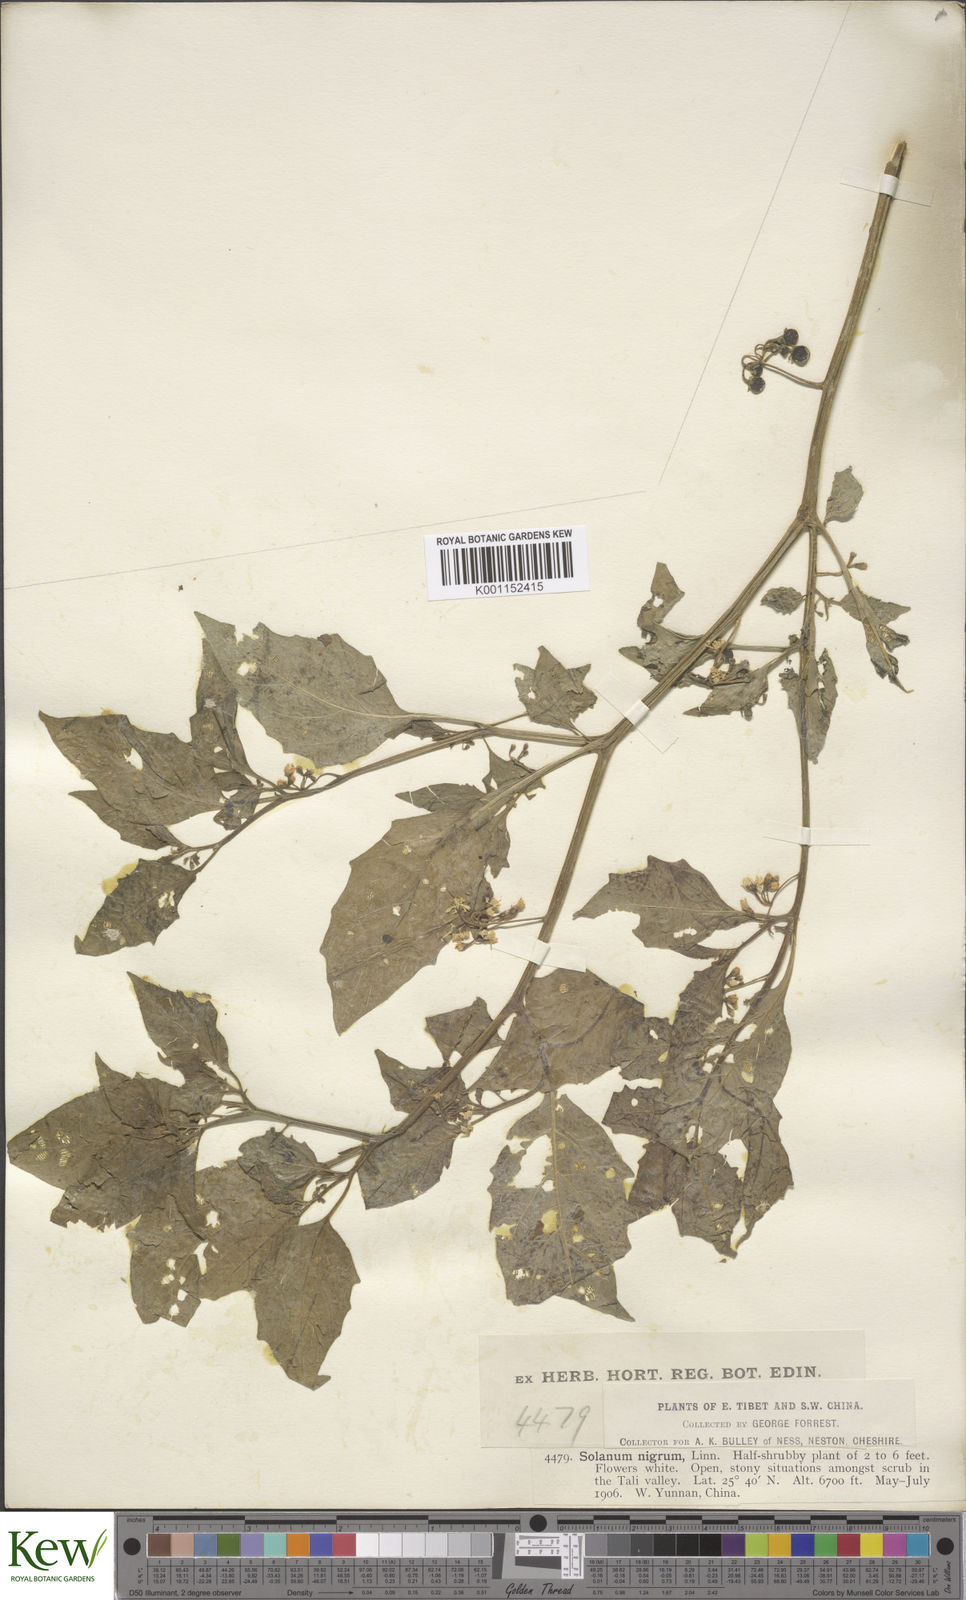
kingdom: Plantae
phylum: Tracheophyta
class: Magnoliopsida
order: Solanales
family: Solanaceae
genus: Solanum
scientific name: Solanum scabrum
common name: Garden-huckleberry
